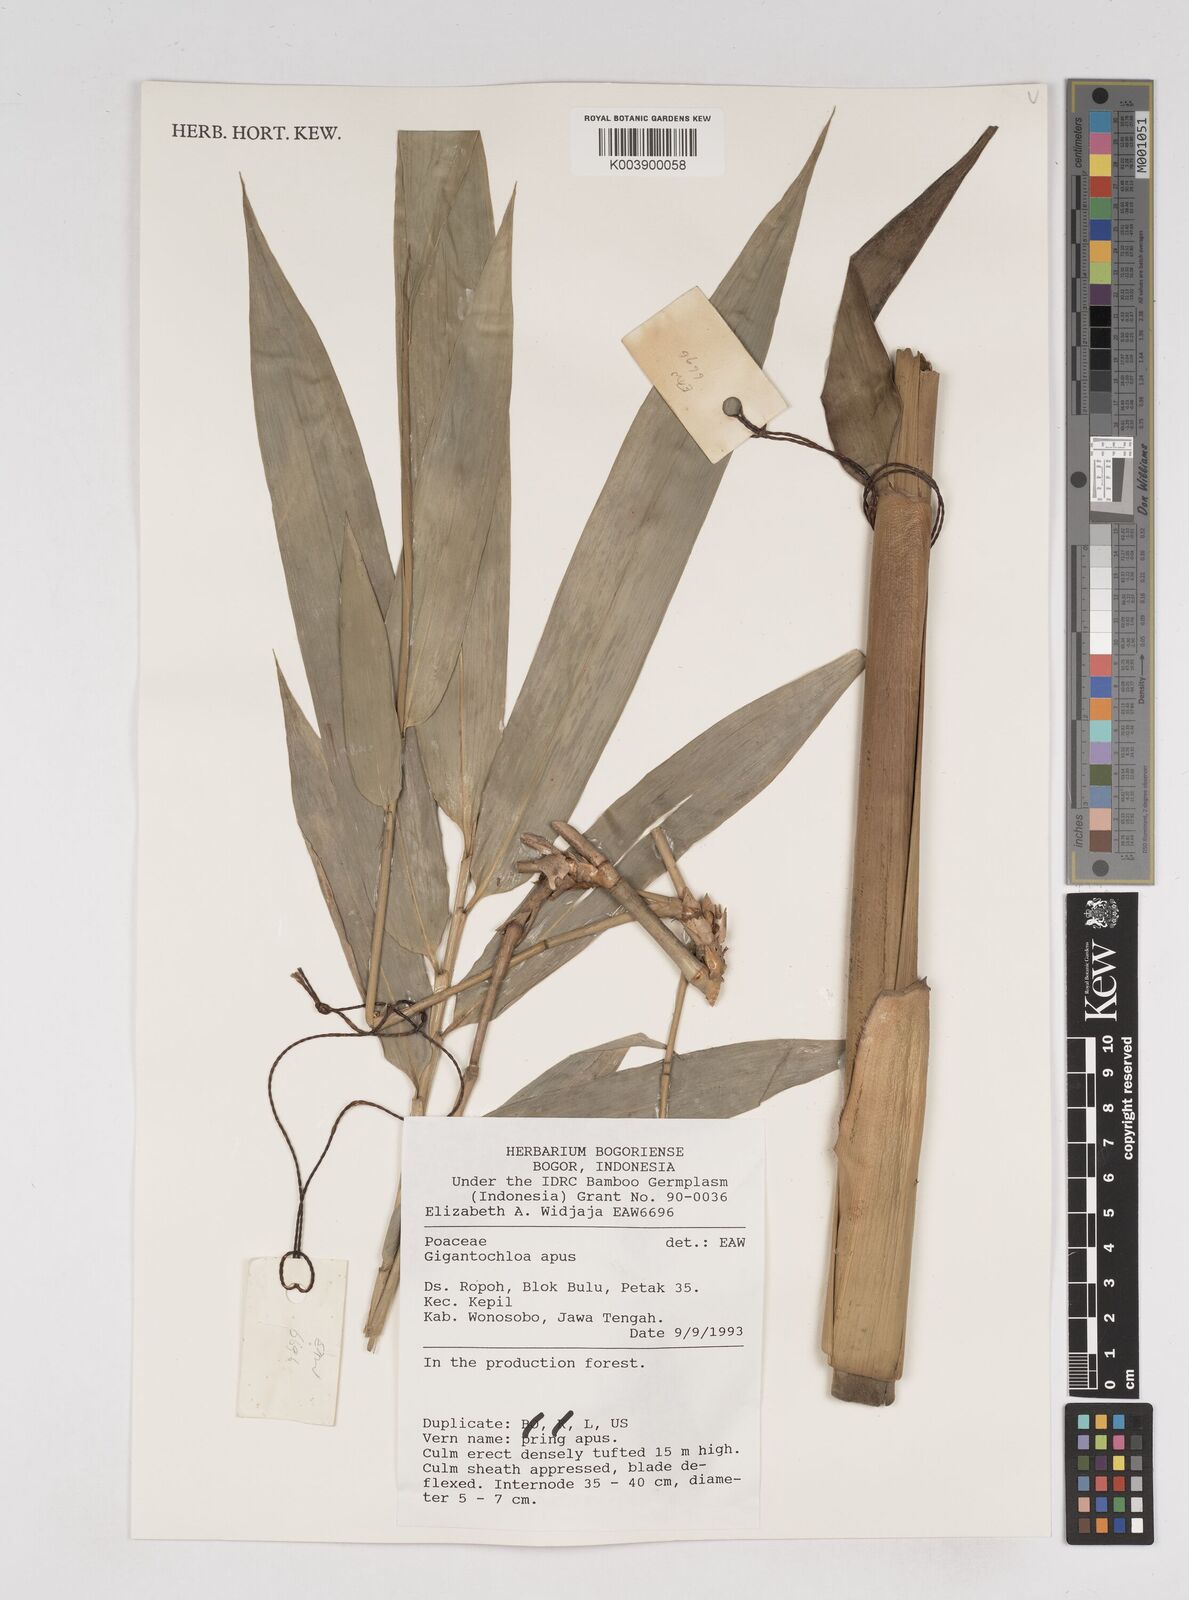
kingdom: Plantae
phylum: Tracheophyta
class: Liliopsida
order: Poales
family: Poaceae
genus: Gigantochloa
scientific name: Gigantochloa
